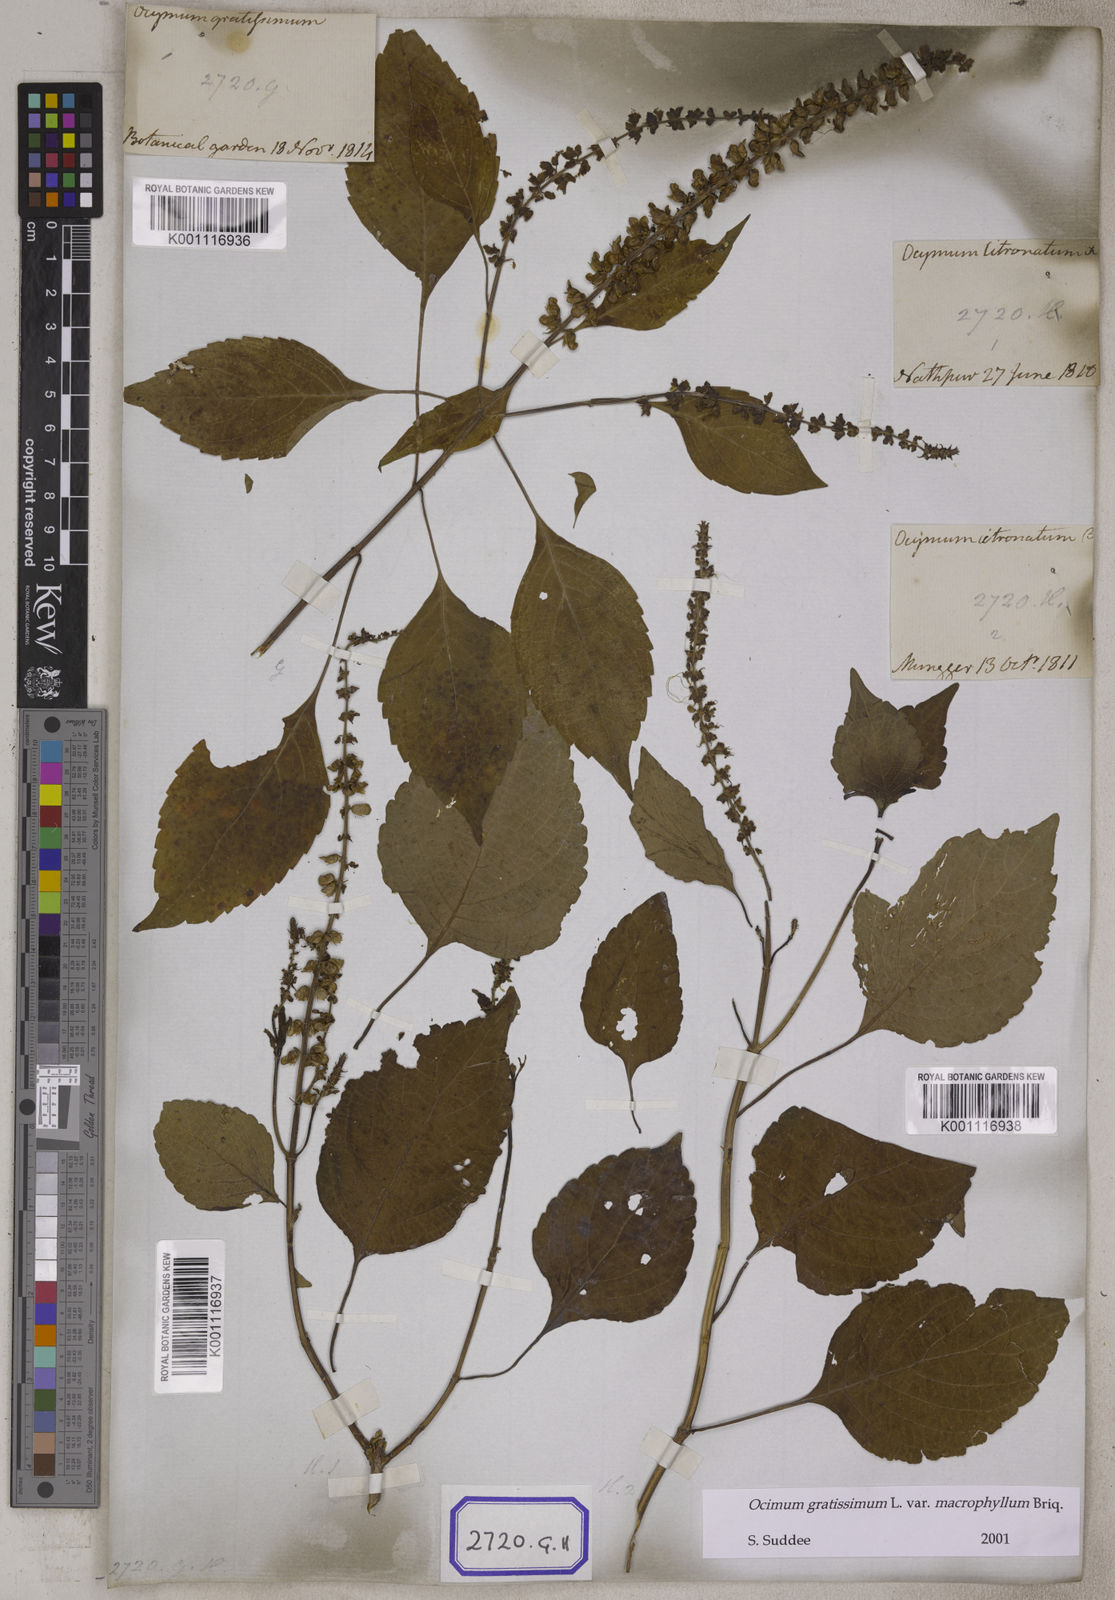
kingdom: Plantae
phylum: Tracheophyta
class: Magnoliopsida
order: Lamiales
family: Lamiaceae
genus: Ocimum
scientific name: Ocimum gratissimum
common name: African basil
